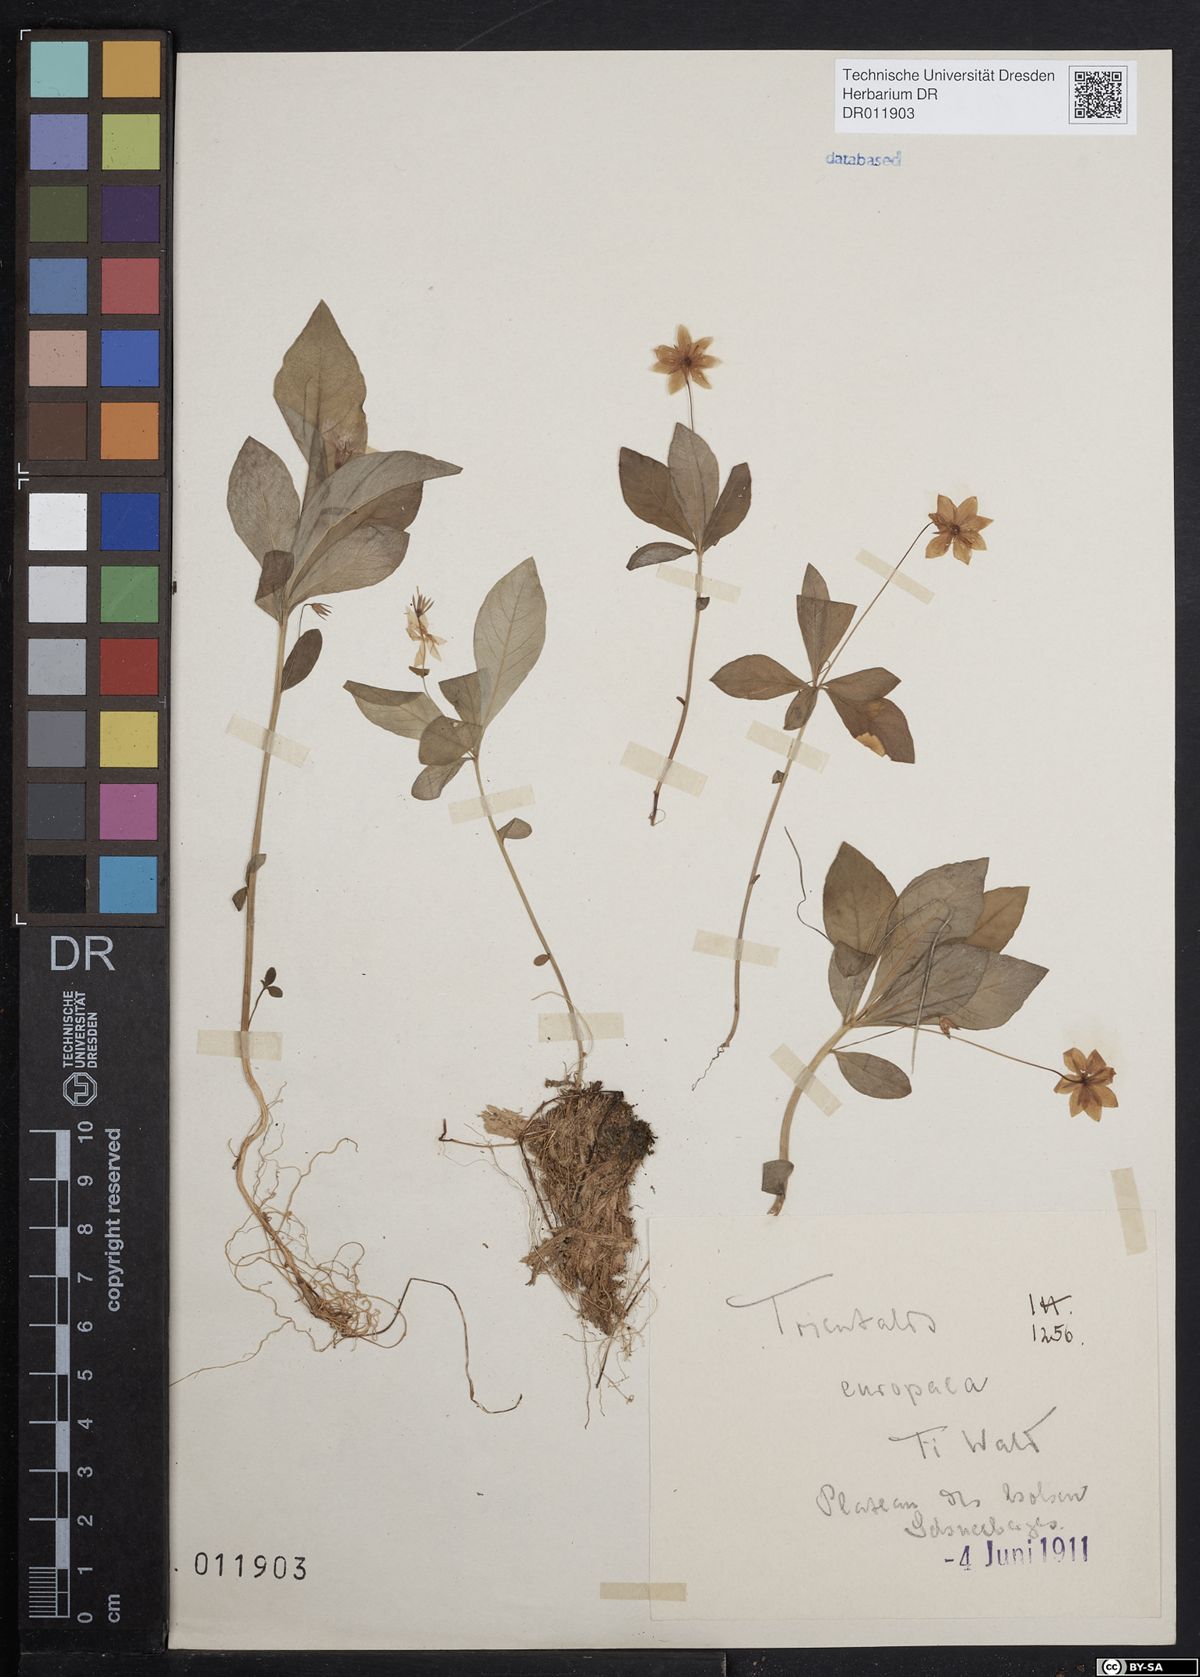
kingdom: Plantae
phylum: Tracheophyta
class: Magnoliopsida
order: Ericales
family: Primulaceae
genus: Lysimachia
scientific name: Lysimachia europaea
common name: Arctic starflower
